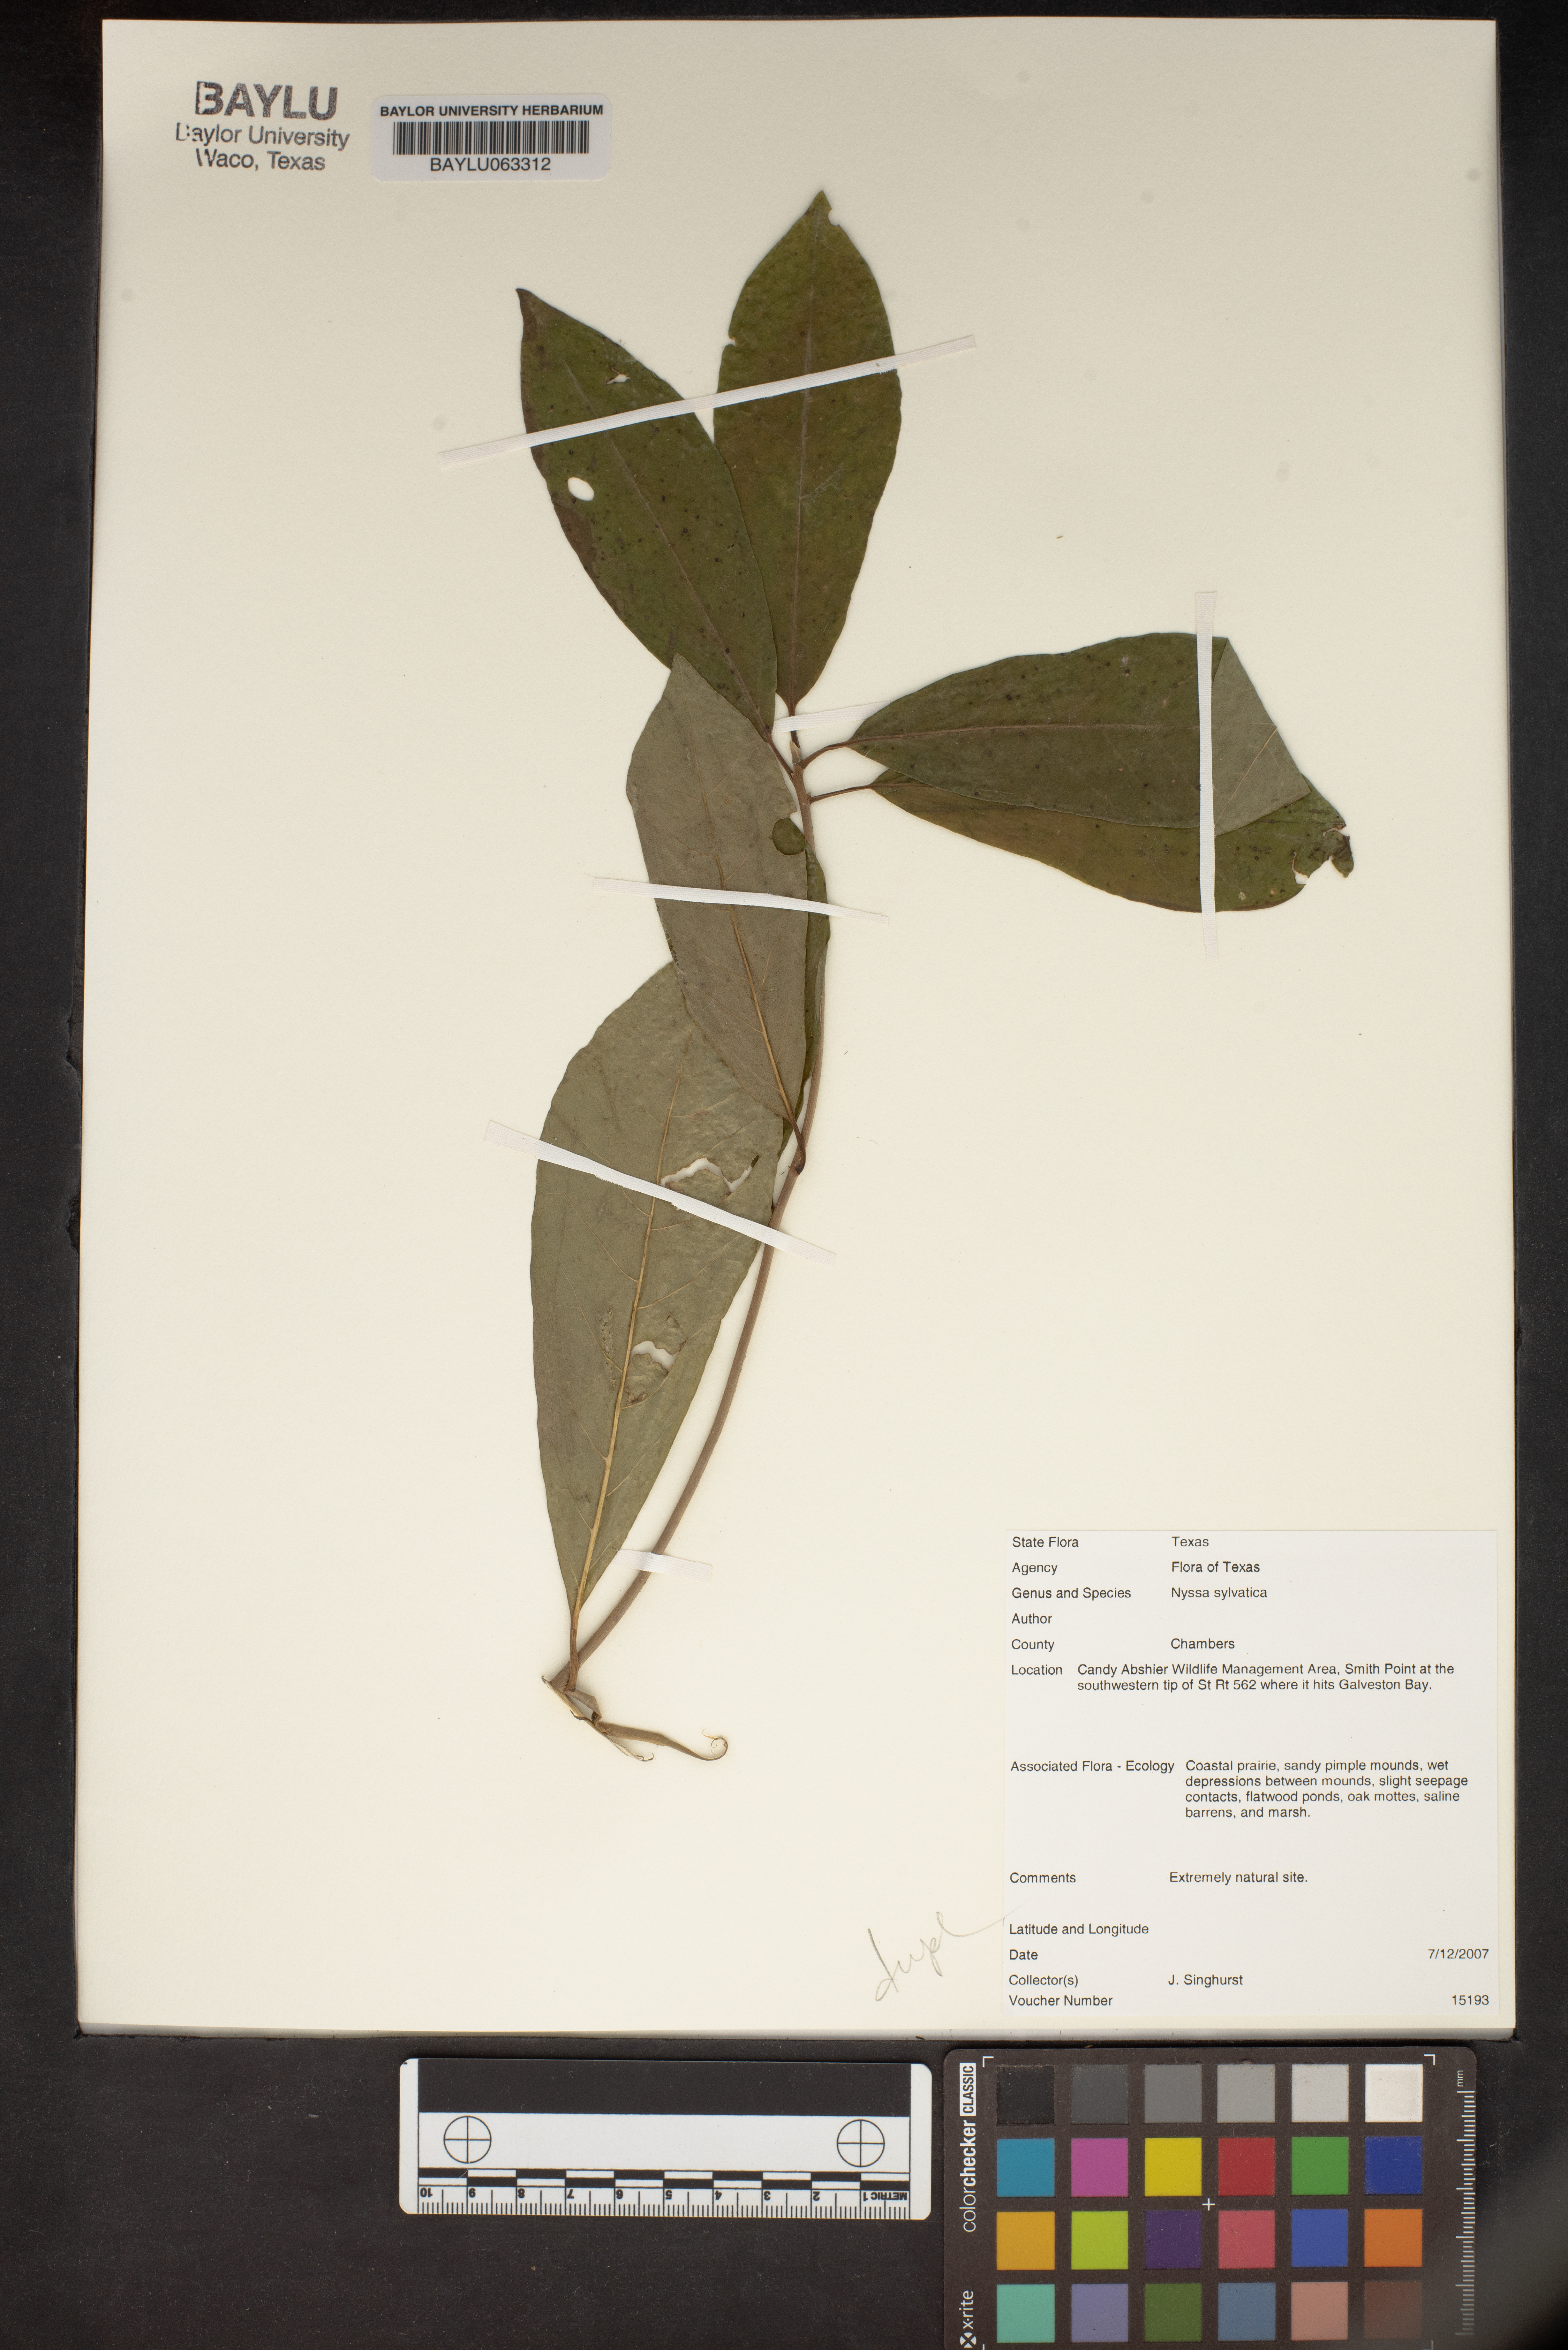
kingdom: Plantae
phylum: Tracheophyta
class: Magnoliopsida
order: Cornales
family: Nyssaceae
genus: Nyssa
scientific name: Nyssa sylvatica
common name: Black tupelo
